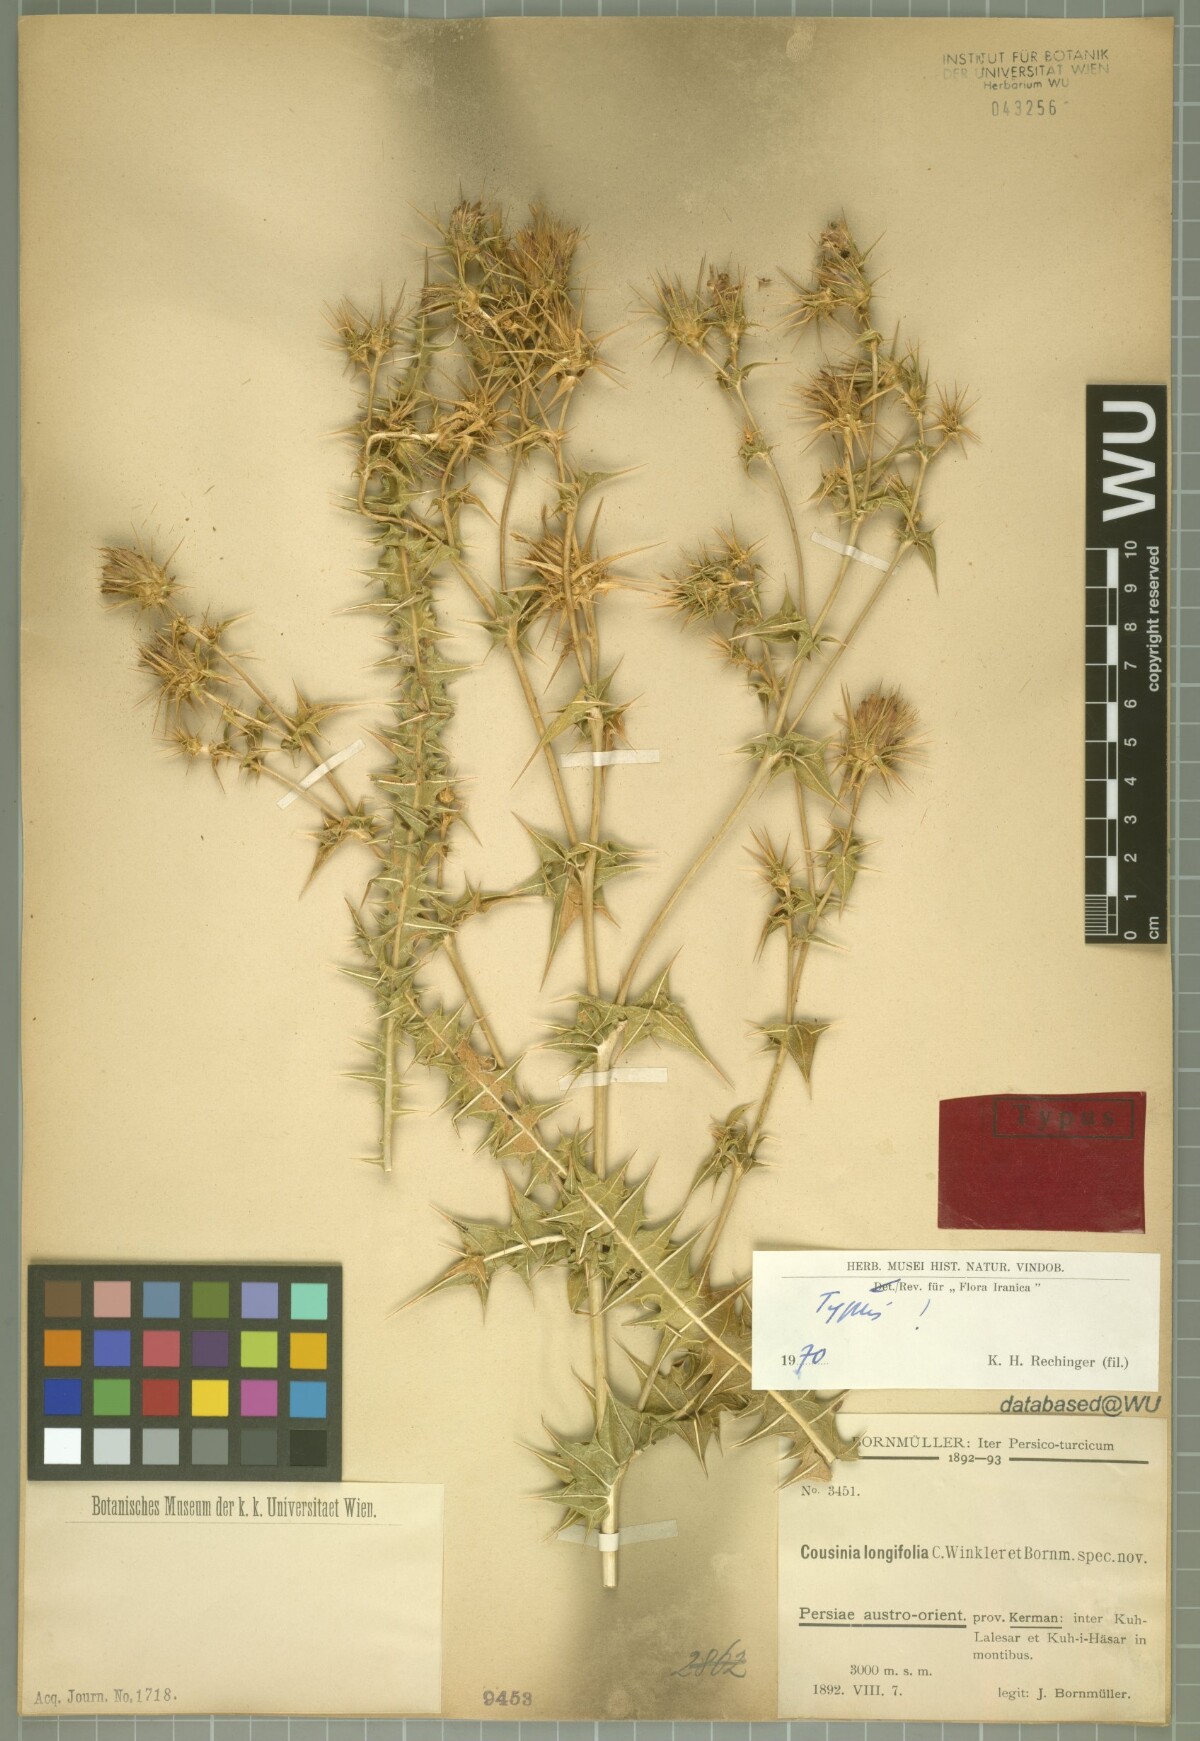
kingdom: Plantae
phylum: Tracheophyta
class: Magnoliopsida
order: Asterales
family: Asteraceae
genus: Cousinia
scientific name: Cousinia longifolia
